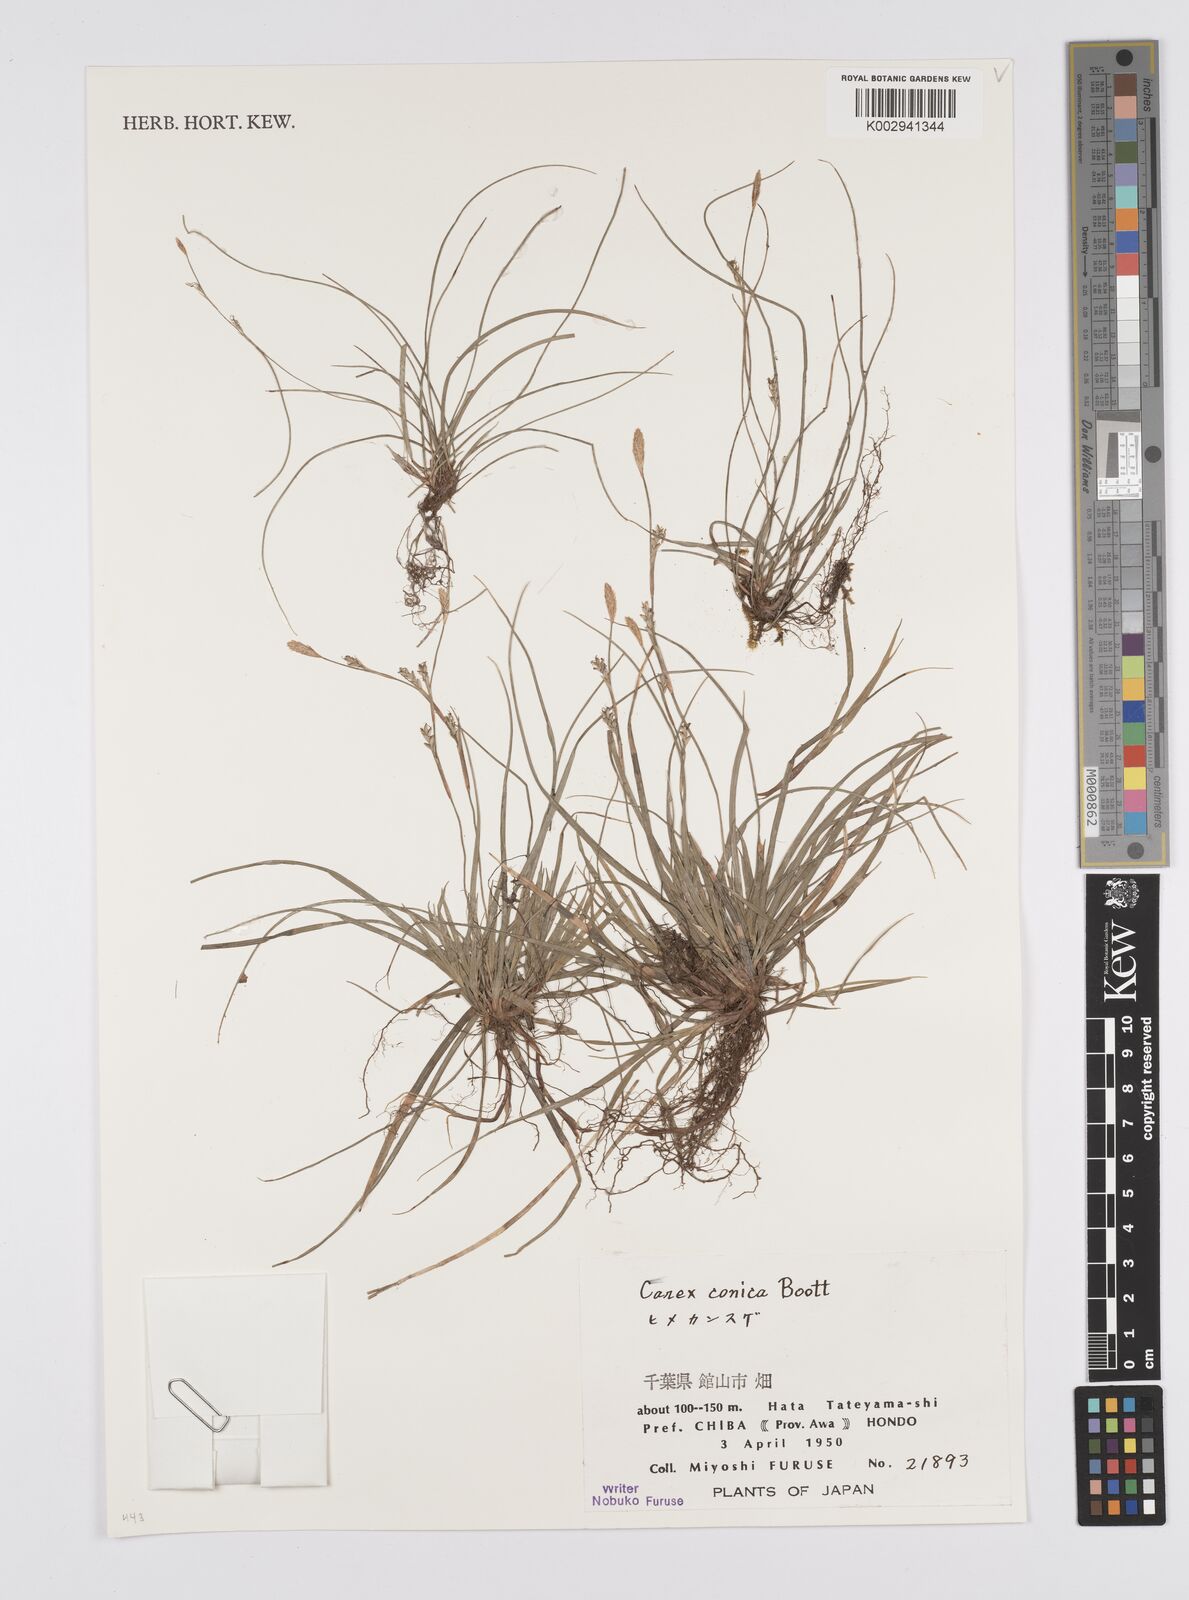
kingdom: Plantae
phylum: Tracheophyta
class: Liliopsida
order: Poales
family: Cyperaceae
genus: Carex
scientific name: Carex conica
